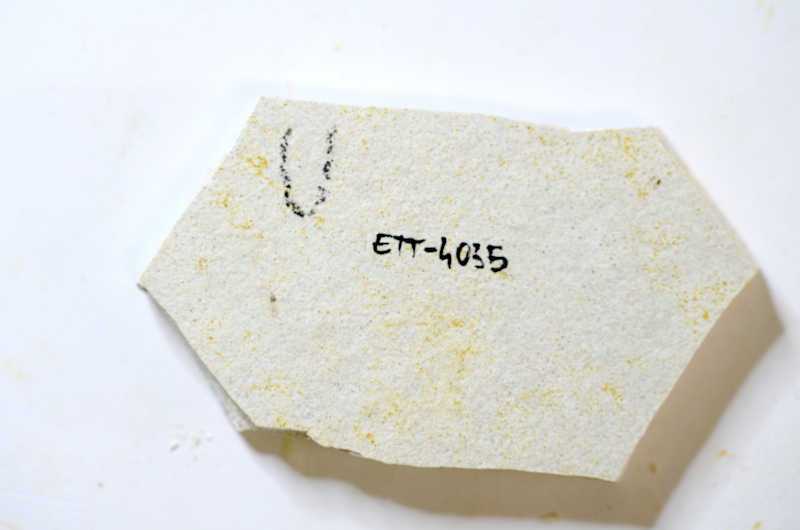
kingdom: Animalia
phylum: Chordata
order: Salmoniformes
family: Orthogonikleithridae
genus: Orthogonikleithrus
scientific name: Orthogonikleithrus hoelli
